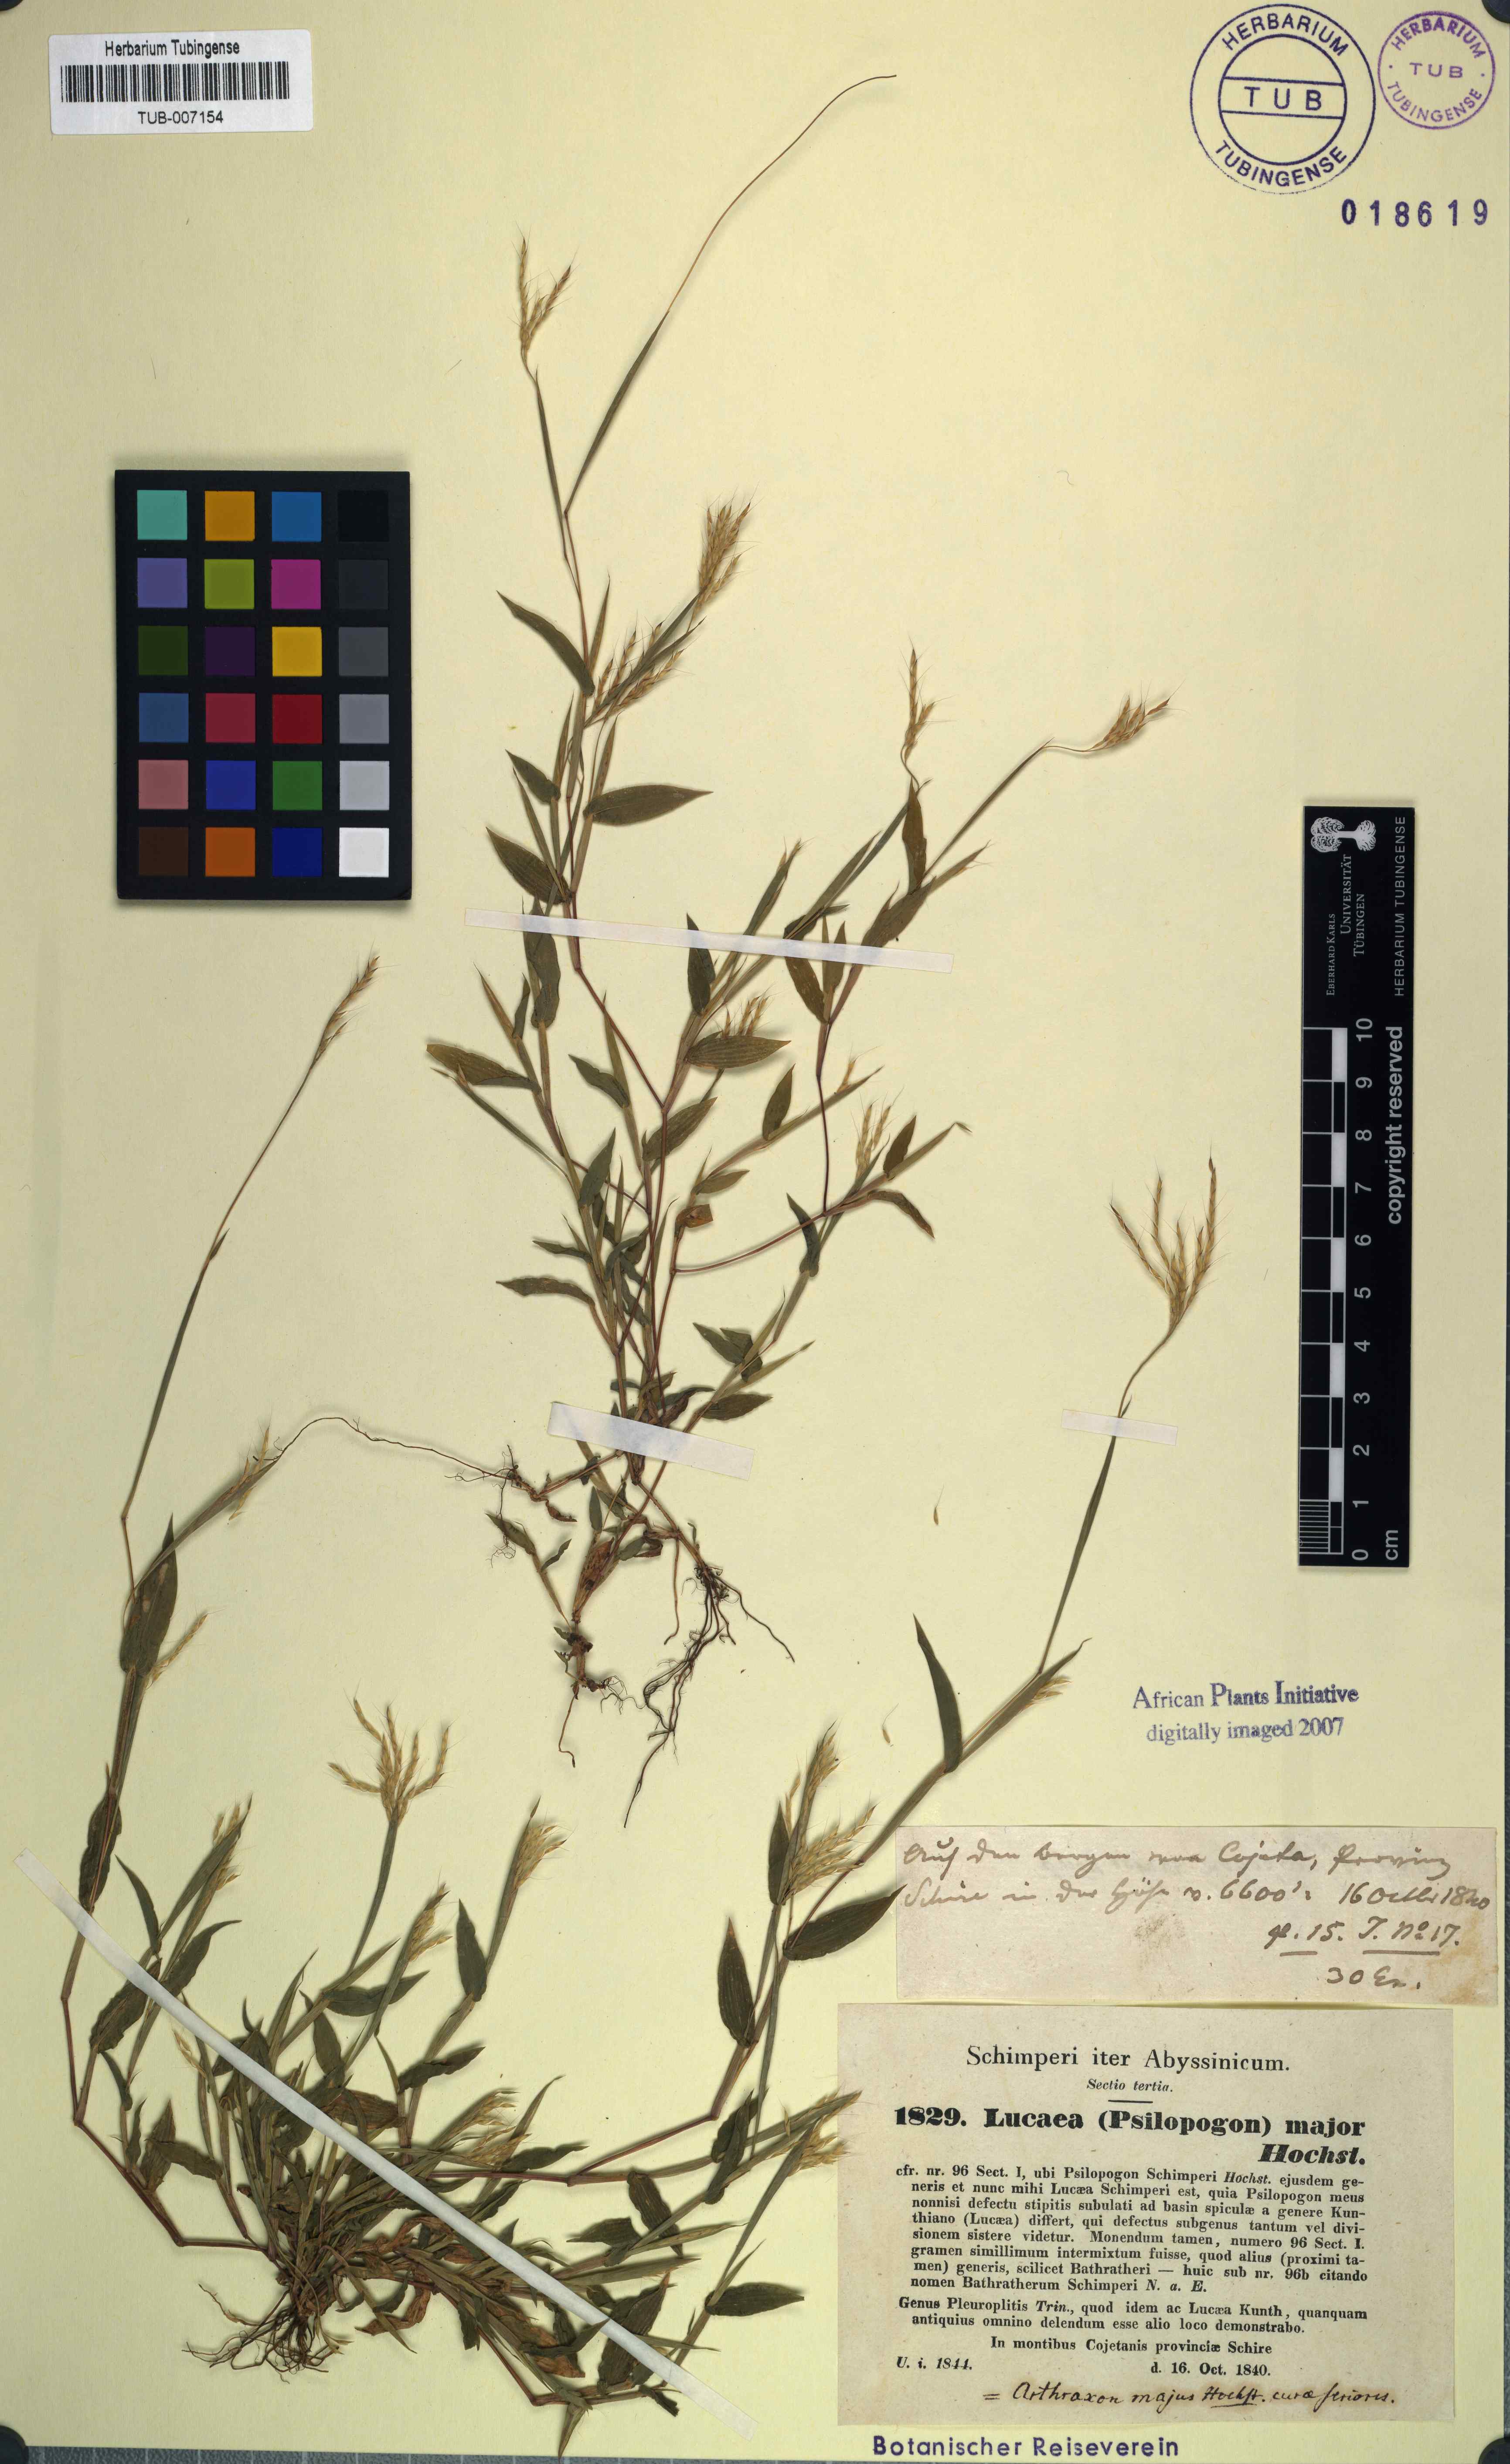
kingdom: Plantae
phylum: Tracheophyta
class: Liliopsida
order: Poales
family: Poaceae
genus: Arthraxon
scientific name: Arthraxon hispidus
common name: Small carpgrass
